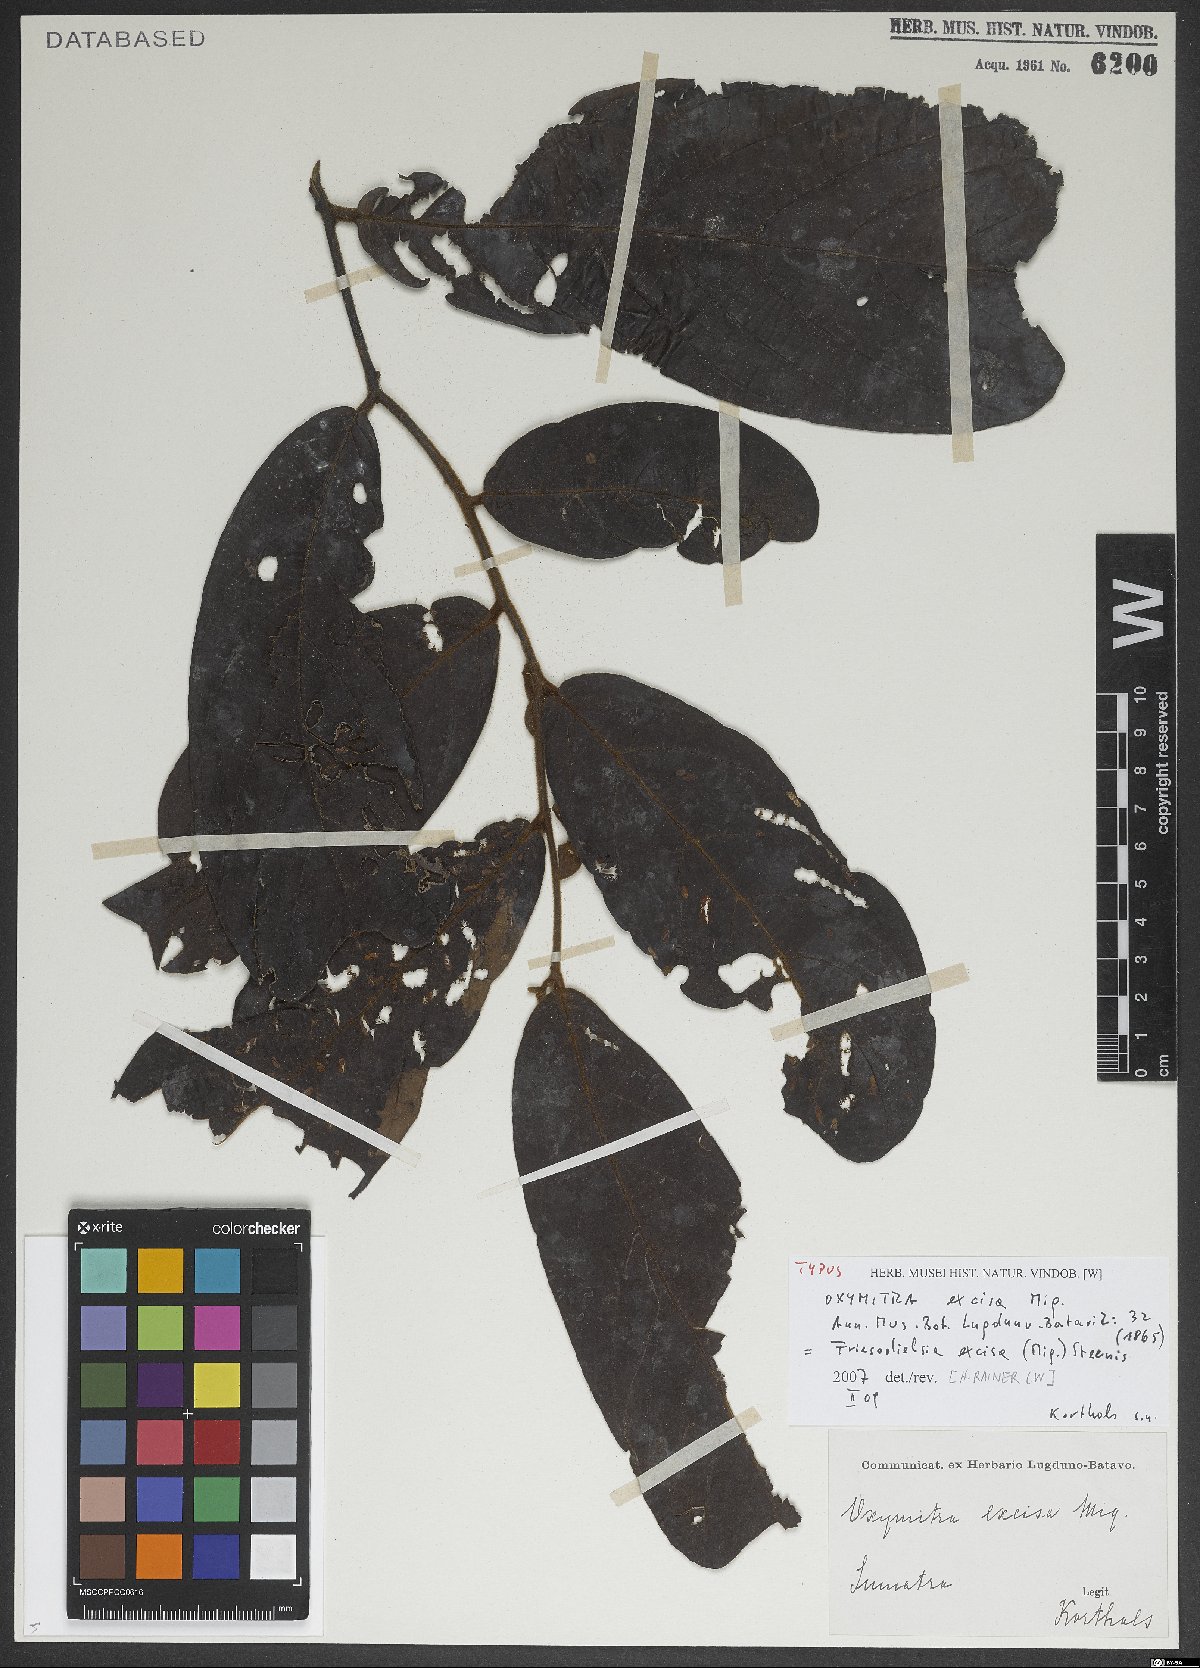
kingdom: Plantae
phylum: Tracheophyta
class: Magnoliopsida
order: Magnoliales
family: Annonaceae
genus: Friesodielsia
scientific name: Friesodielsia excisa
